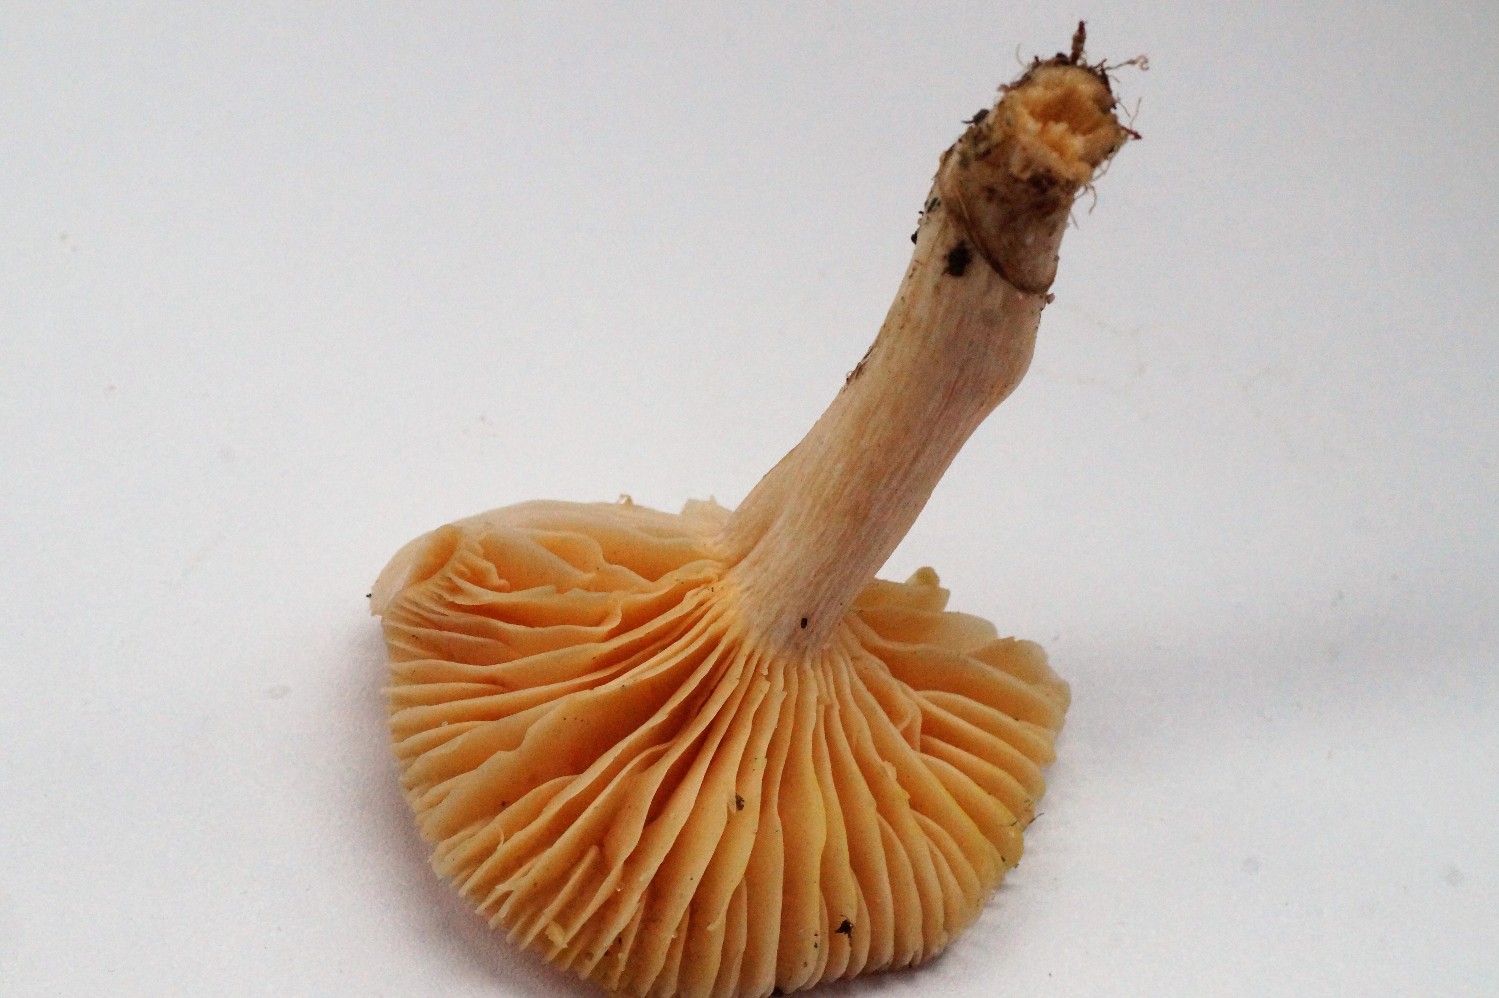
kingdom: Fungi
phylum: Basidiomycota
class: Agaricomycetes
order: Agaricales
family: Hygrophoraceae
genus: Cuphophyllus
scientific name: Cuphophyllus pratensis
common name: eng-vokshat
